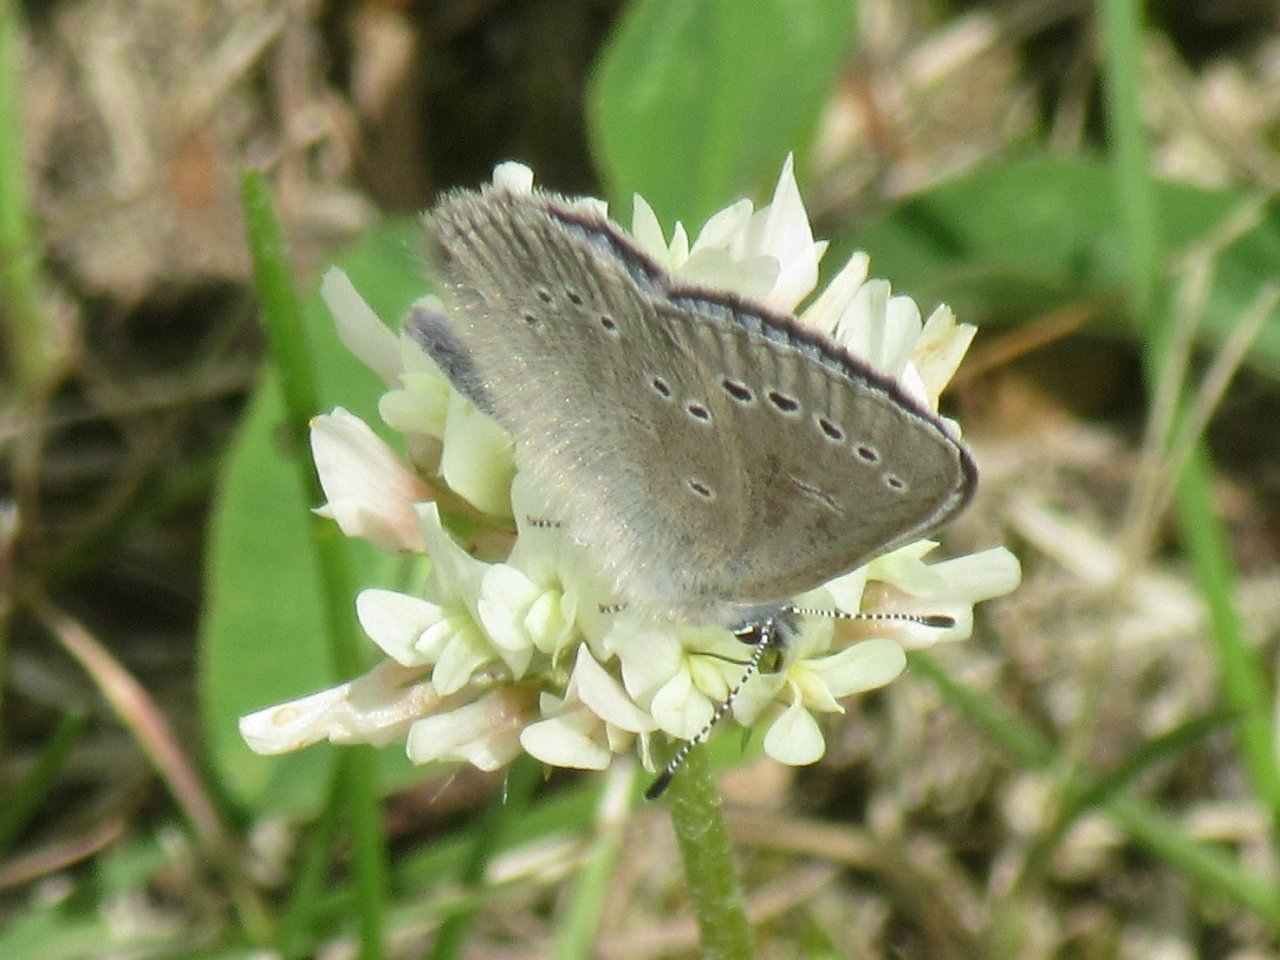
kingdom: Animalia
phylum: Arthropoda
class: Insecta
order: Lepidoptera
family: Lycaenidae
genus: Plebejus
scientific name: Plebejus saepiolus
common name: Greenish Blue
